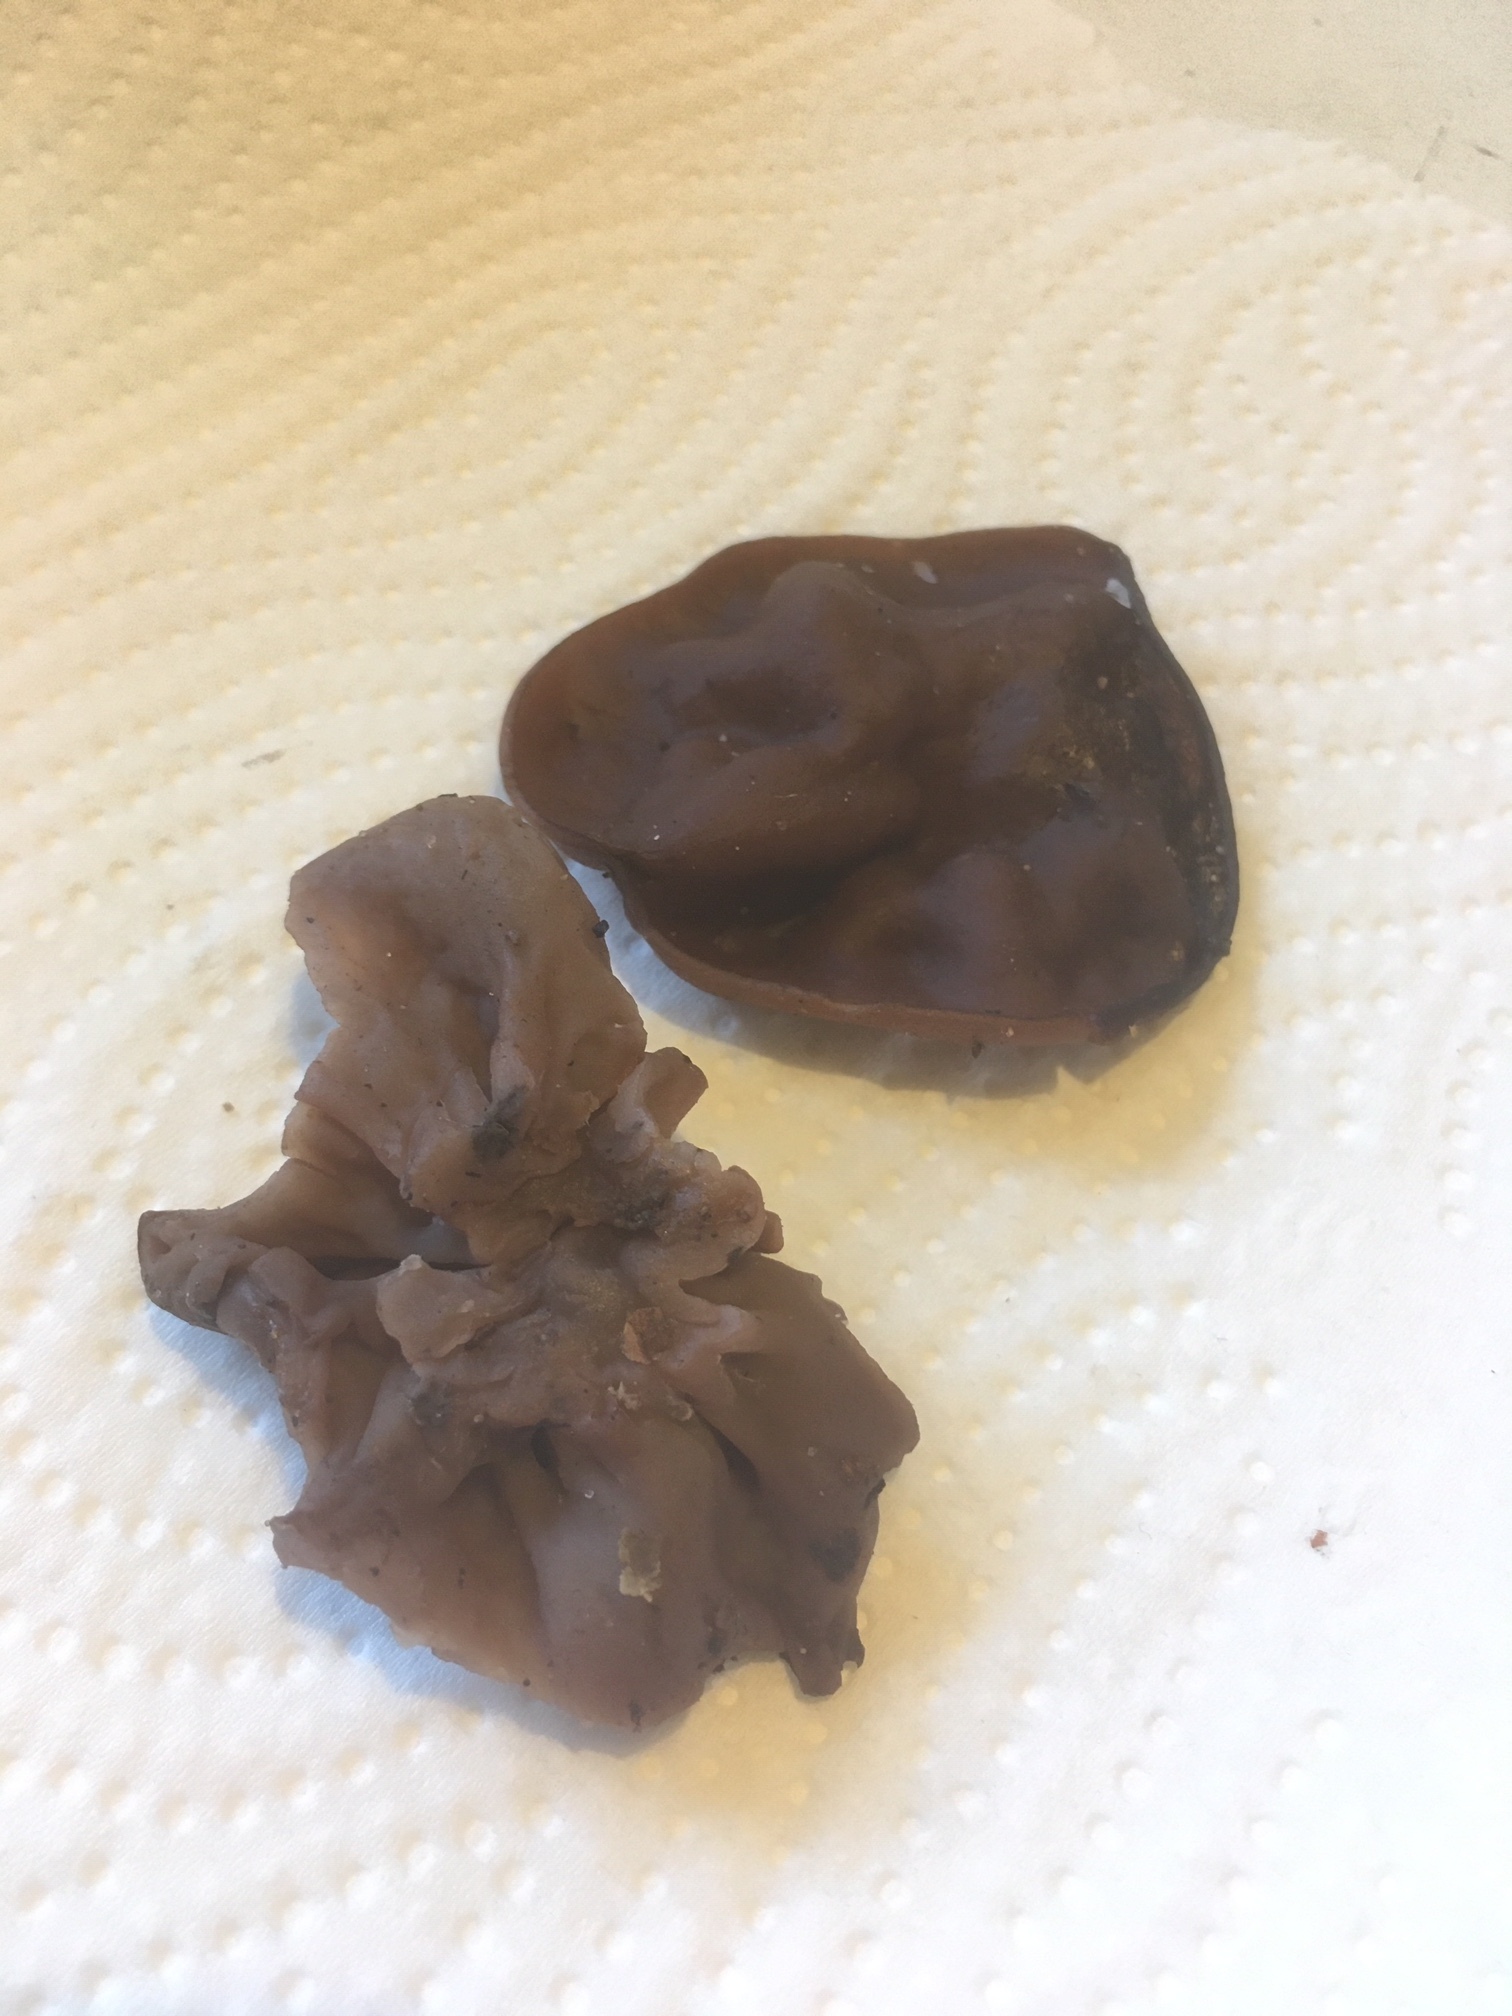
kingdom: Fungi
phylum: Ascomycota
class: Pezizomycetes
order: Pezizales
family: Discinaceae
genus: Discina
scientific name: Discina ancilis
